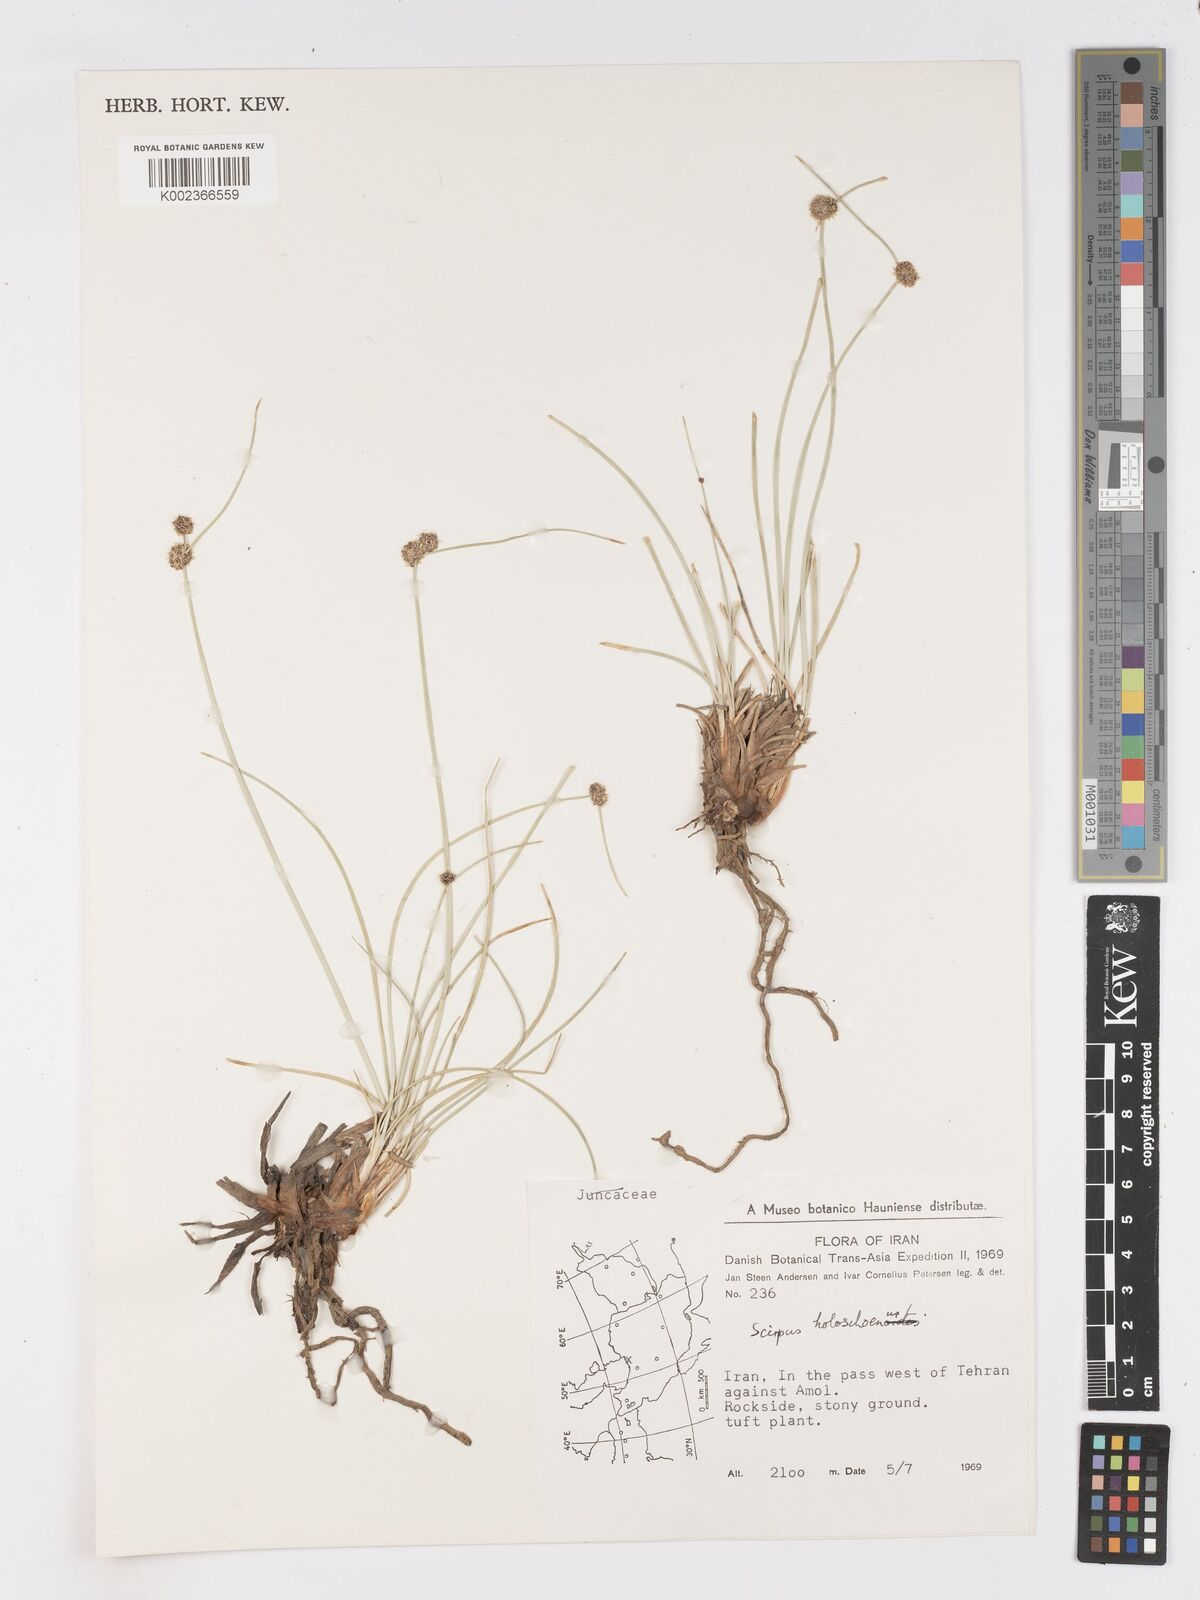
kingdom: Plantae
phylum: Tracheophyta
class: Liliopsida
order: Poales
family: Cyperaceae
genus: Scirpoides
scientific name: Scirpoides holoschoenus
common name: Round-headed club-rush
